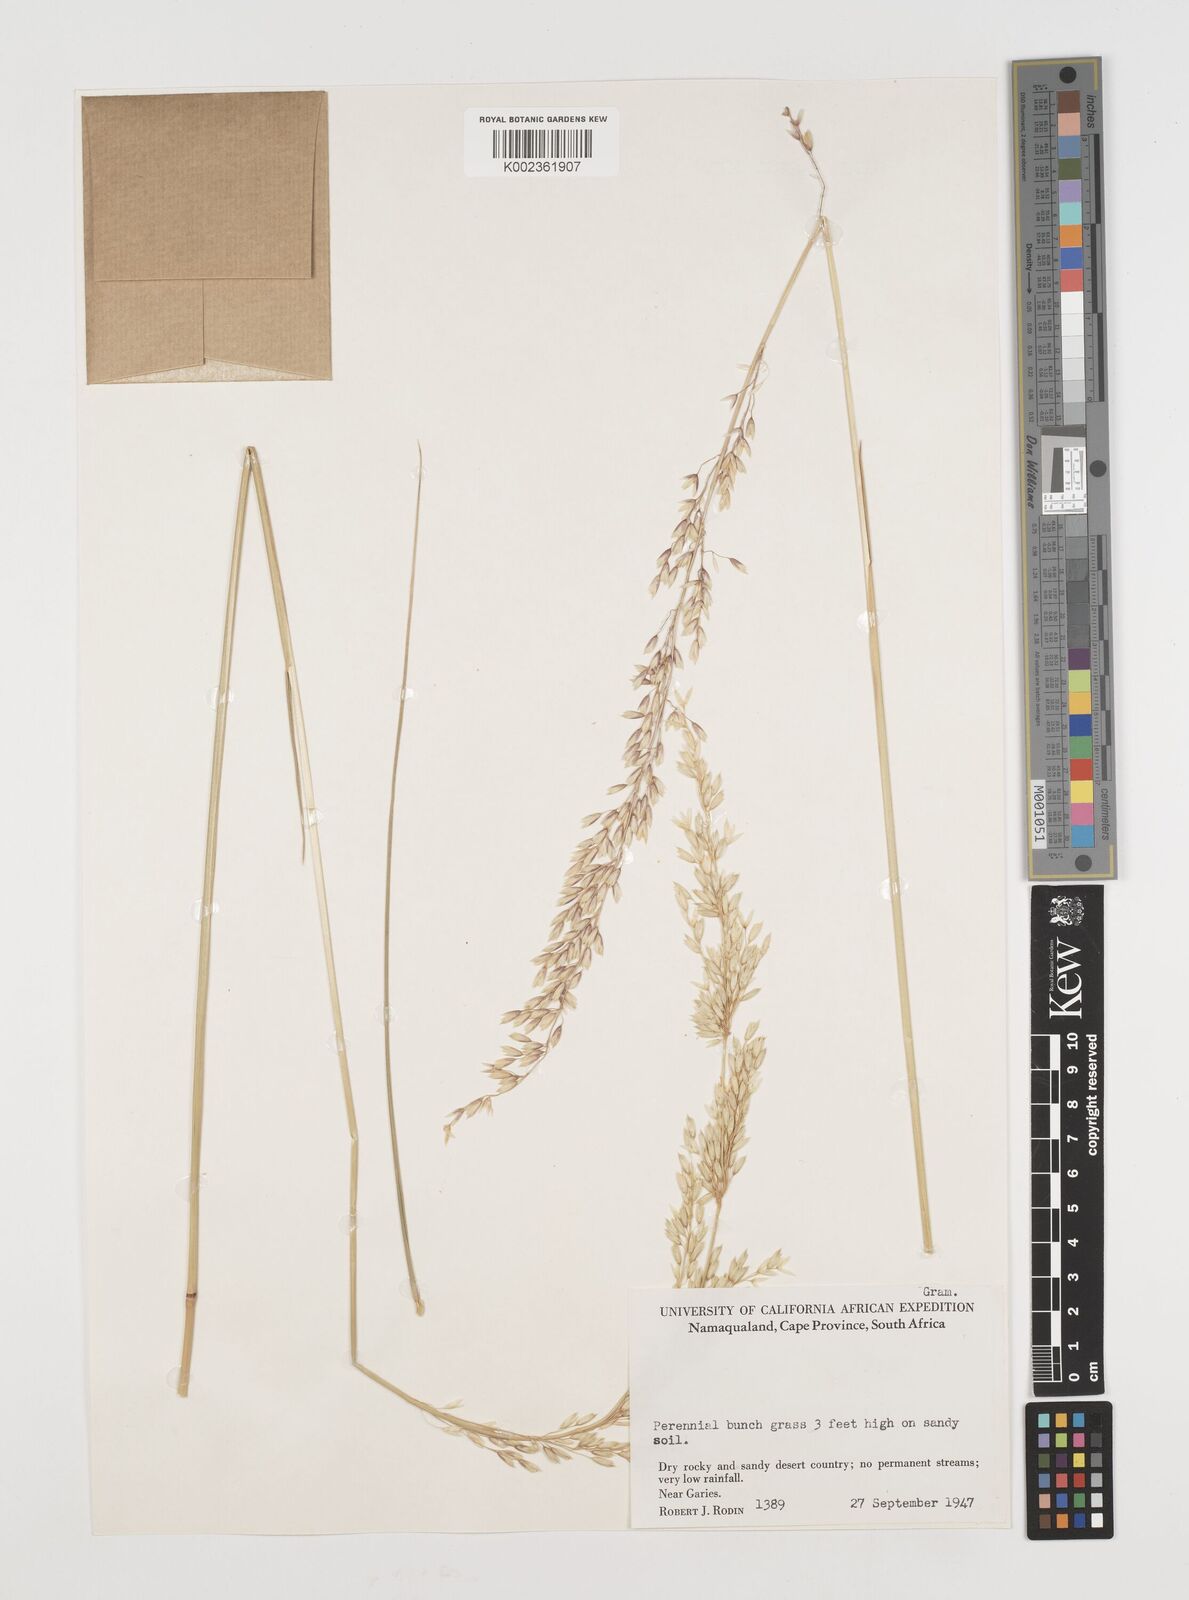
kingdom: Plantae
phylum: Tracheophyta
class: Liliopsida
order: Poales
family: Poaceae
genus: Ehrharta
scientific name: Ehrharta calycina
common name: Perennial veldtgrass
